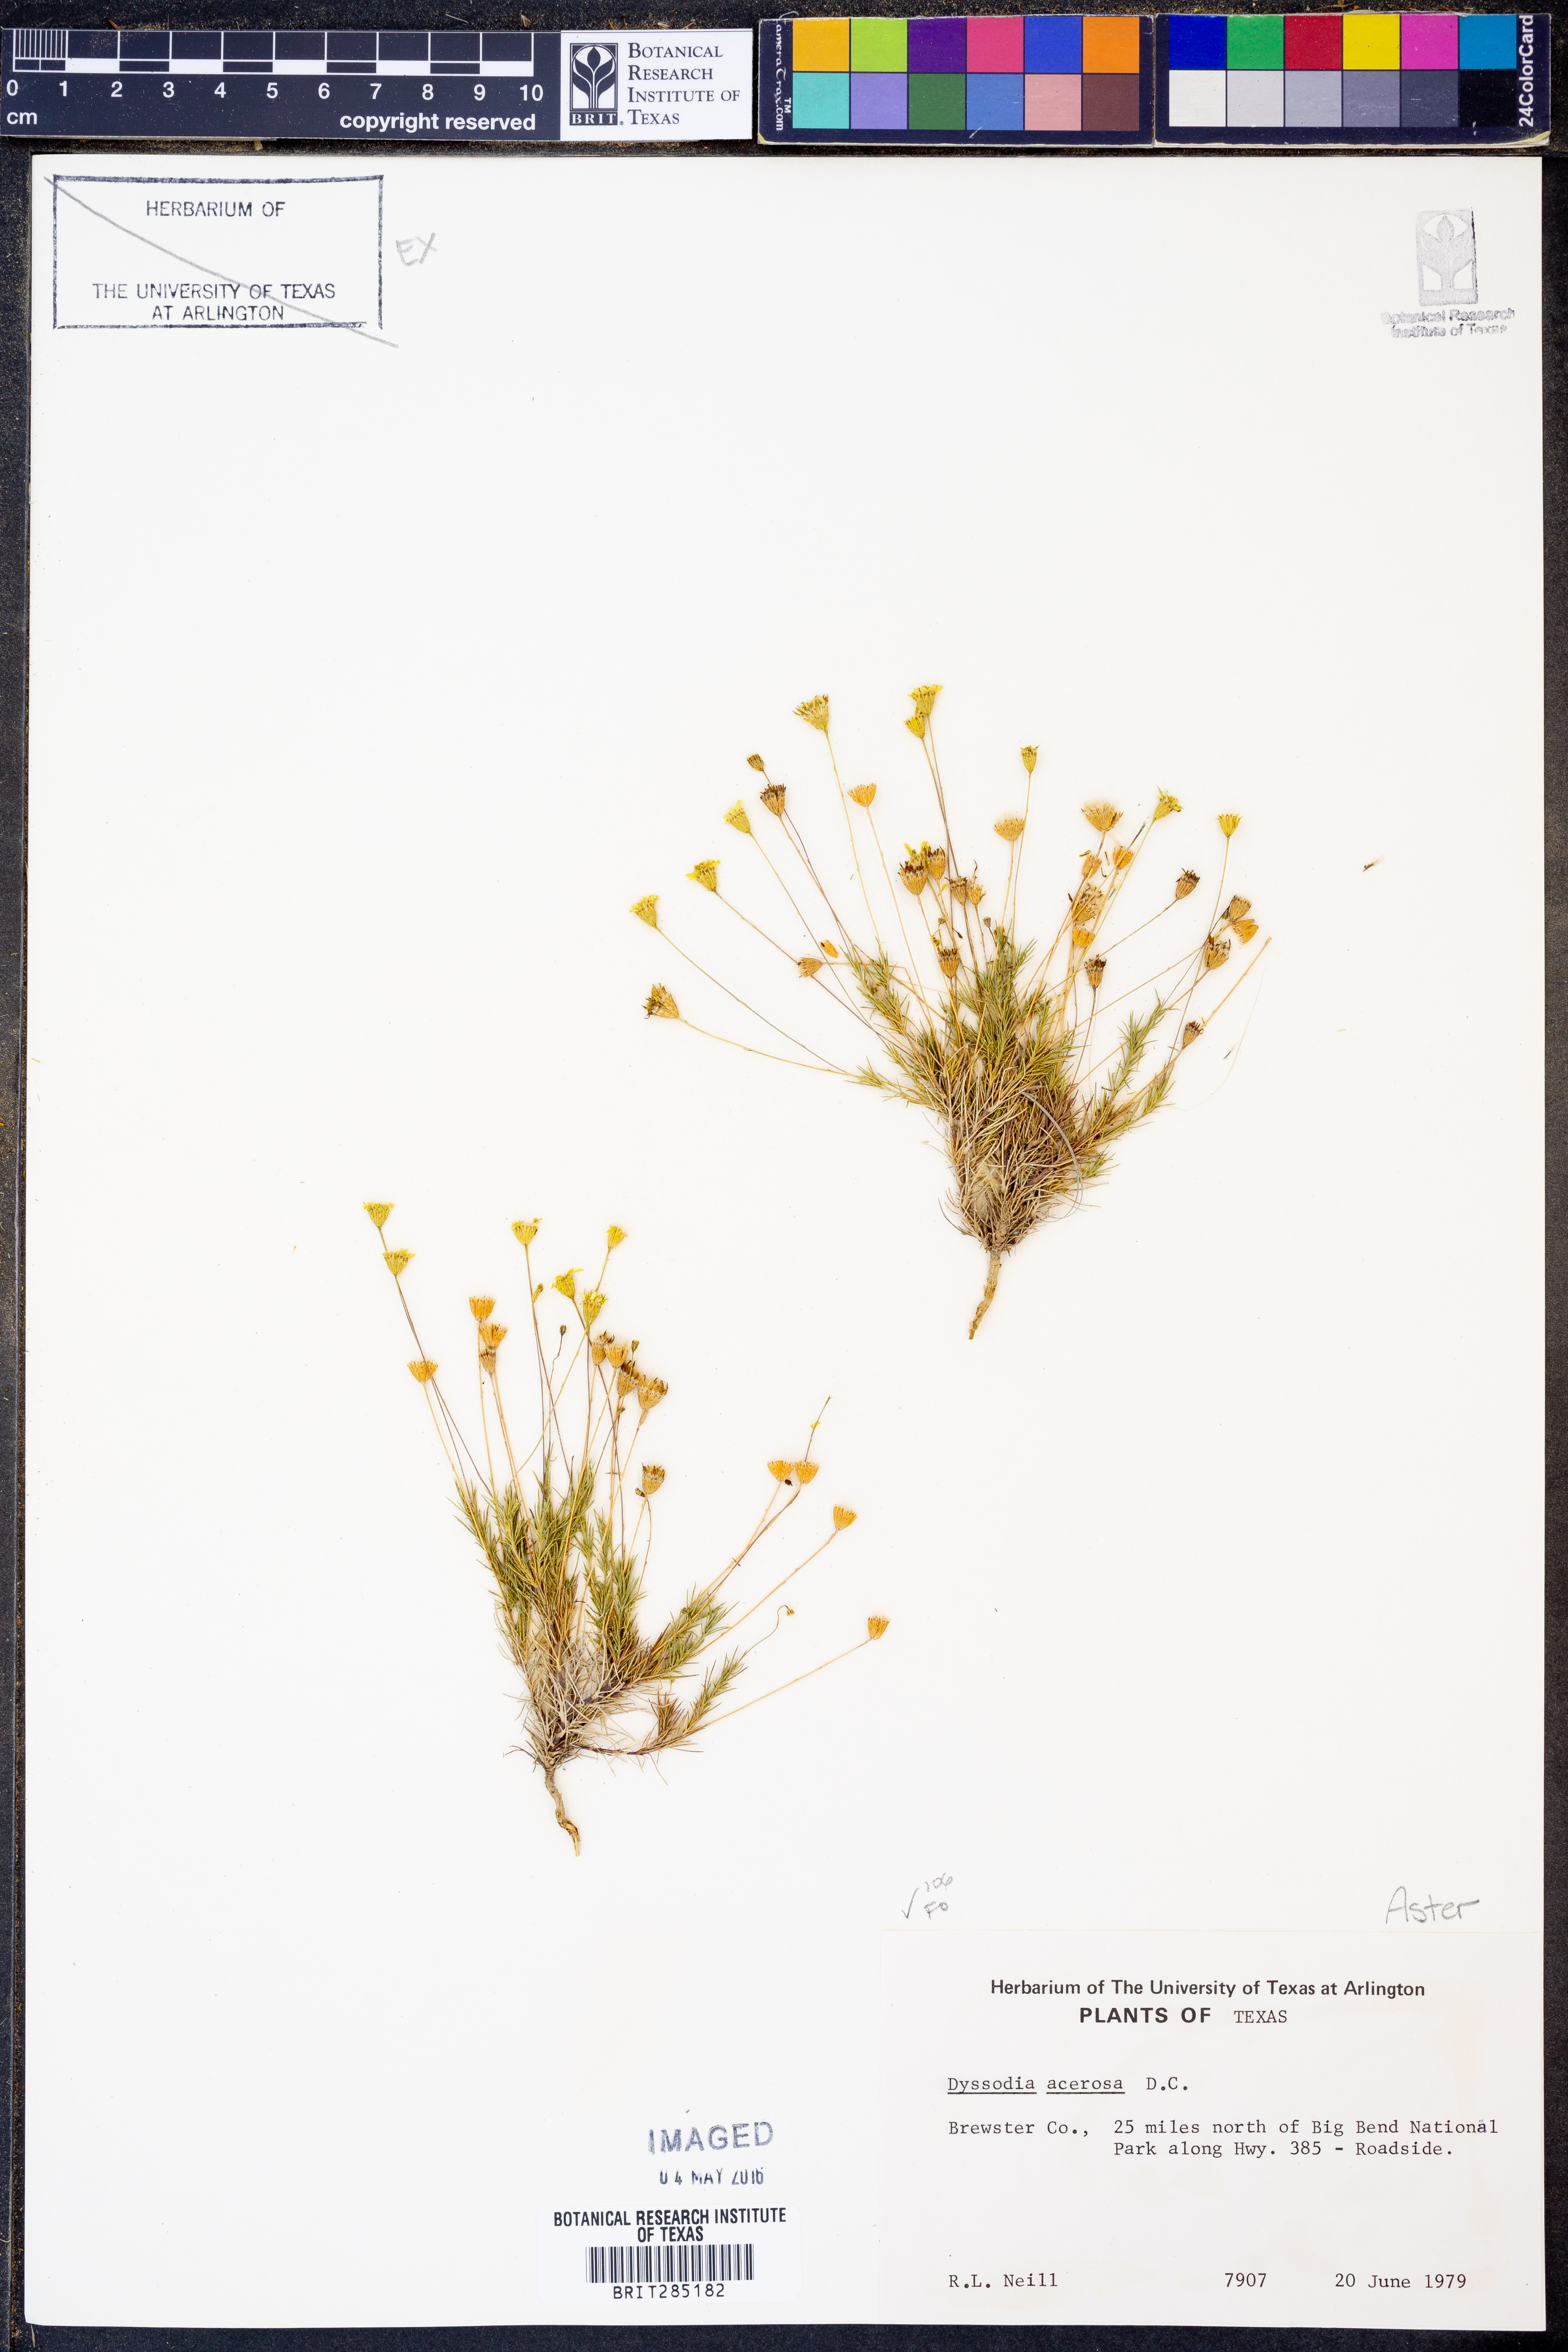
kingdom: Plantae
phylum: Tracheophyta
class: Magnoliopsida
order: Asterales
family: Asteraceae
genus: Thymophylla
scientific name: Thymophylla acerosa
